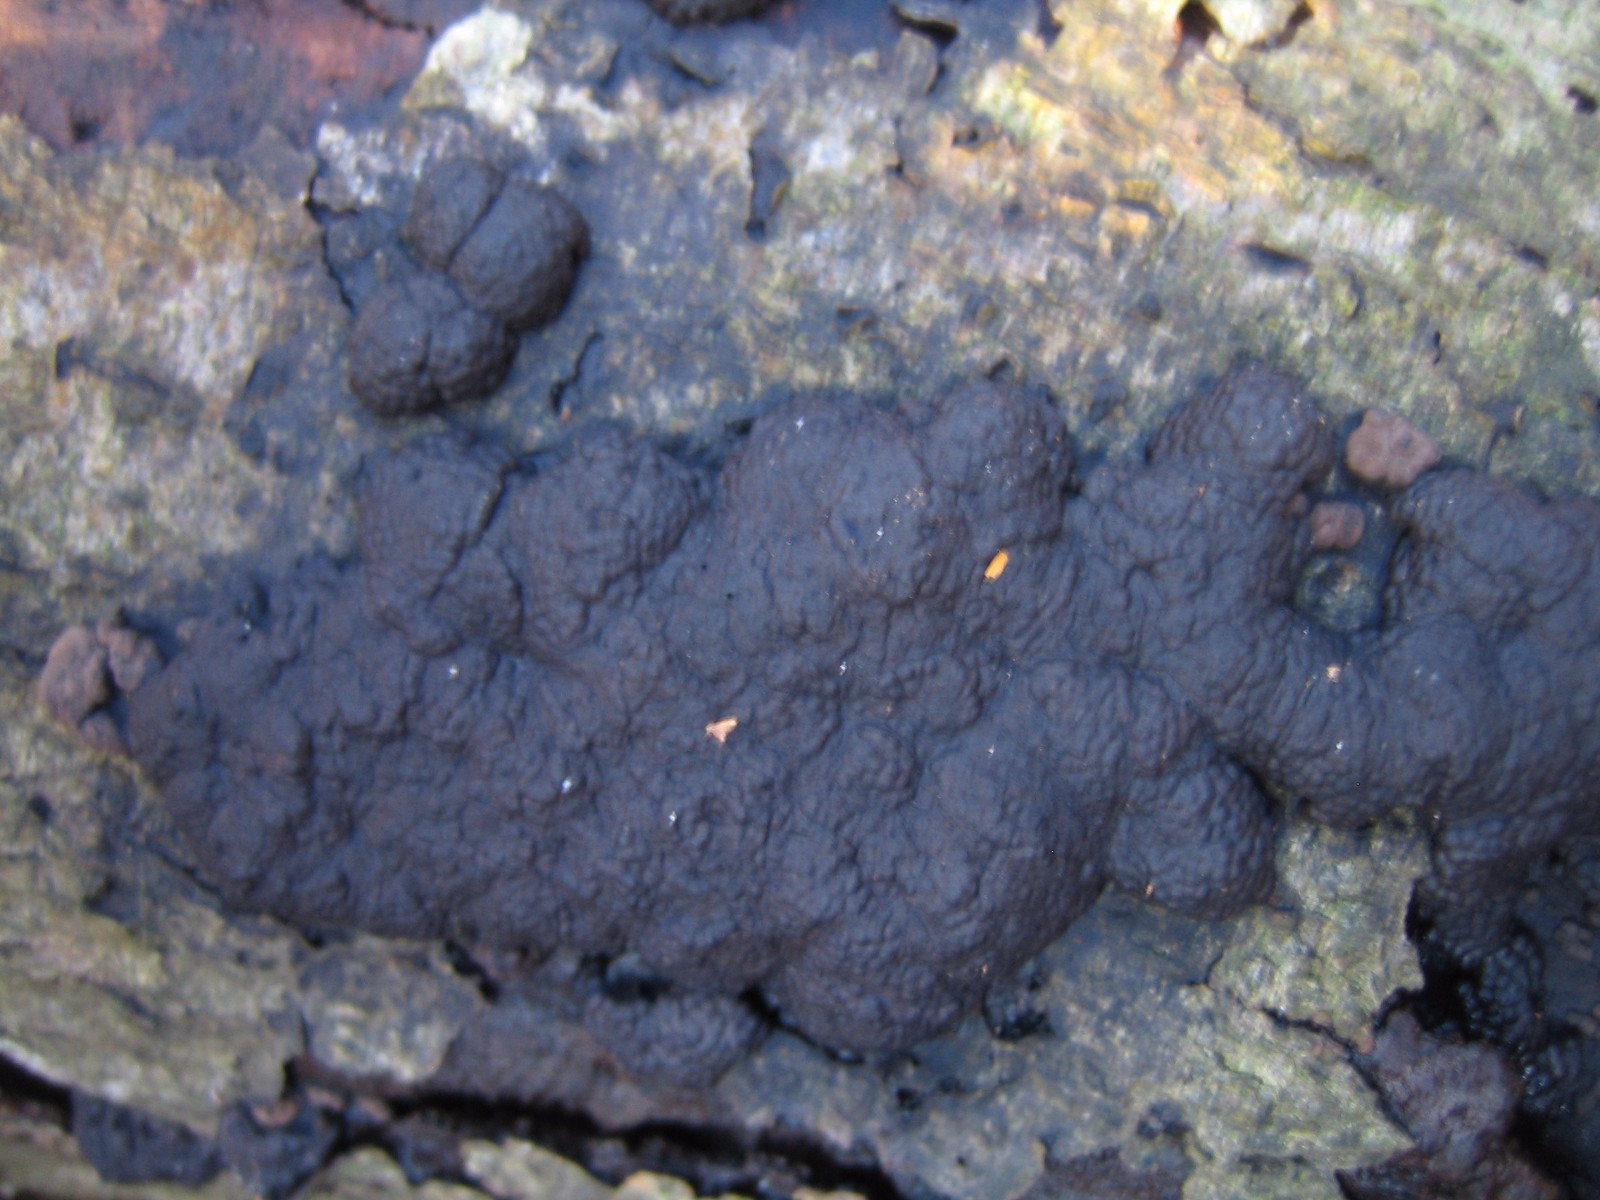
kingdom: Fungi
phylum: Ascomycota
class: Sordariomycetes
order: Xylariales
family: Hypoxylaceae
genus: Jackrogersella
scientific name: Jackrogersella cohaerens
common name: sammenflydende kulbær
